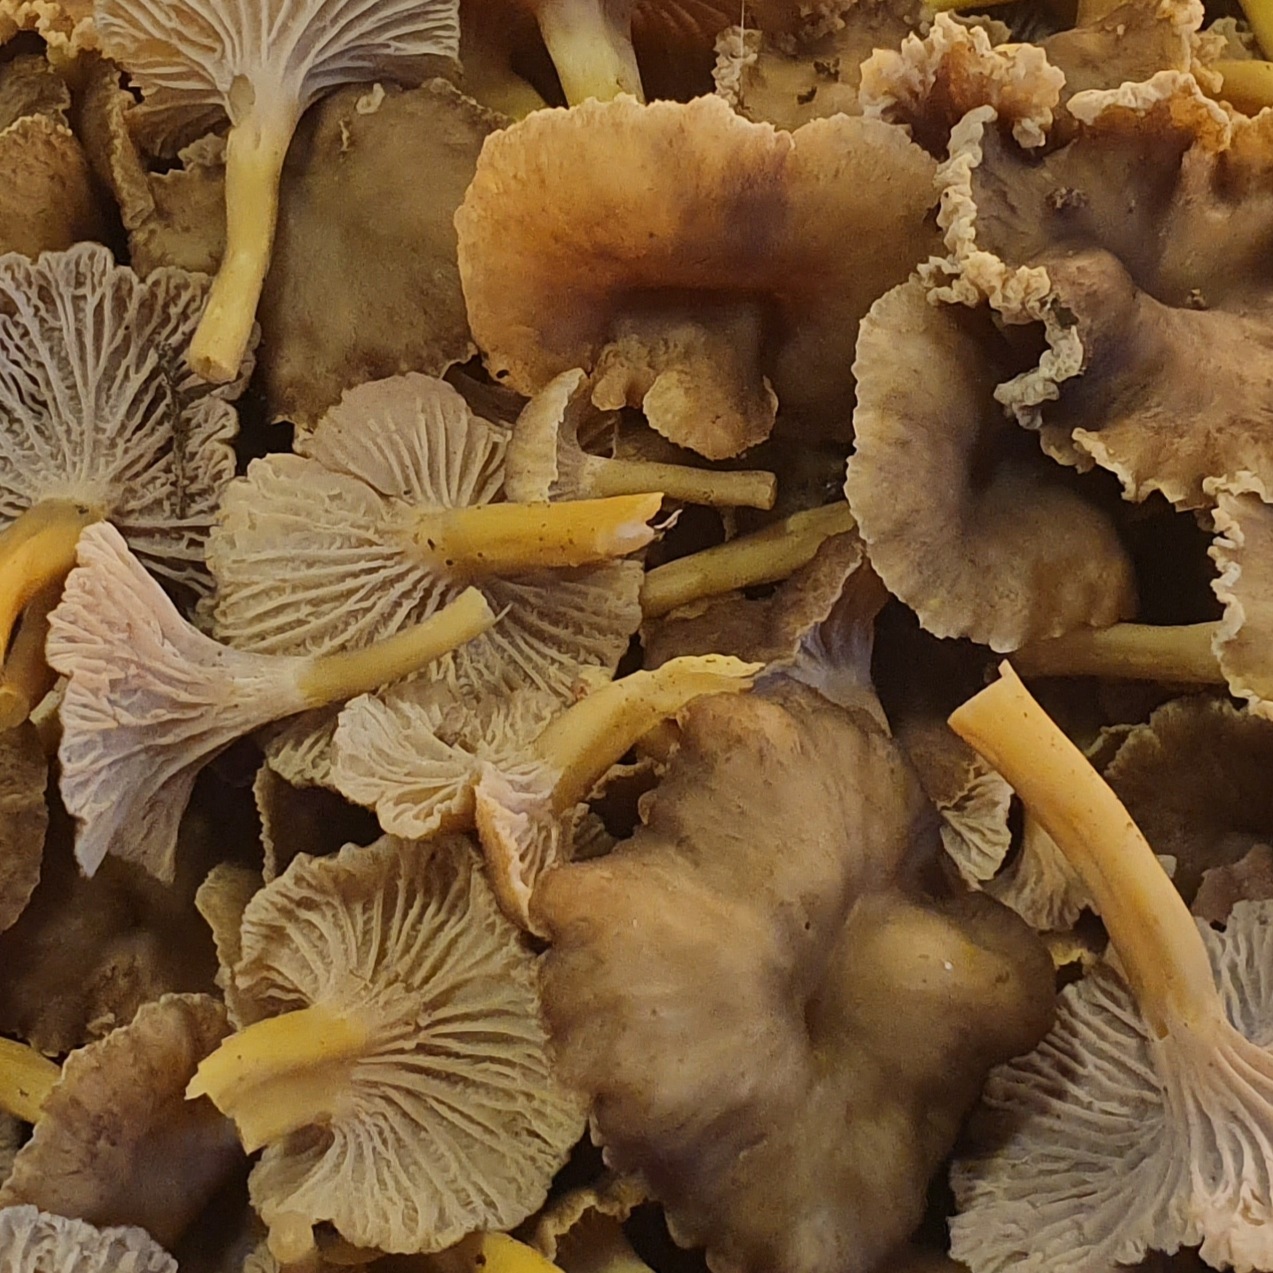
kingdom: Fungi
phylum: Basidiomycota
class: Agaricomycetes
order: Cantharellales
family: Hydnaceae
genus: Craterellus
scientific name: Craterellus tubaeformis
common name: tragt-kantarel
